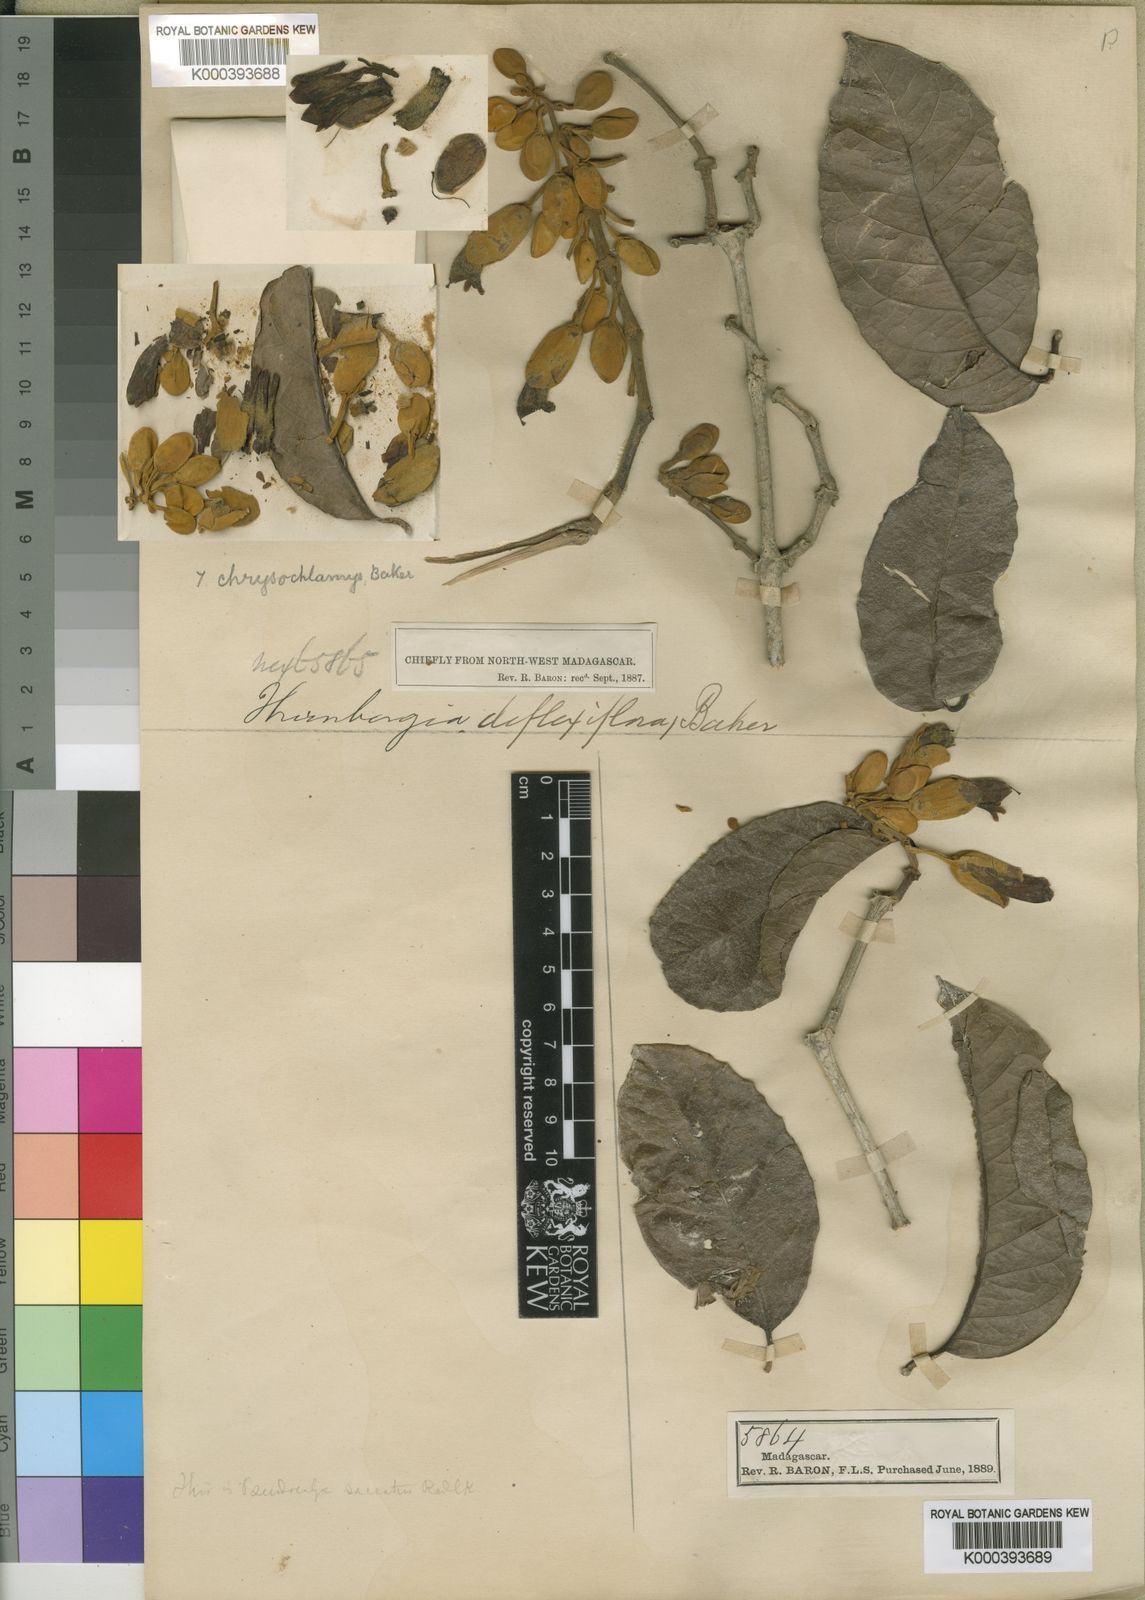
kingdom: Plantae
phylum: Tracheophyta
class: Magnoliopsida
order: Lamiales
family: Acanthaceae
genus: Pseudocalyx
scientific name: Pseudocalyx saccatus
